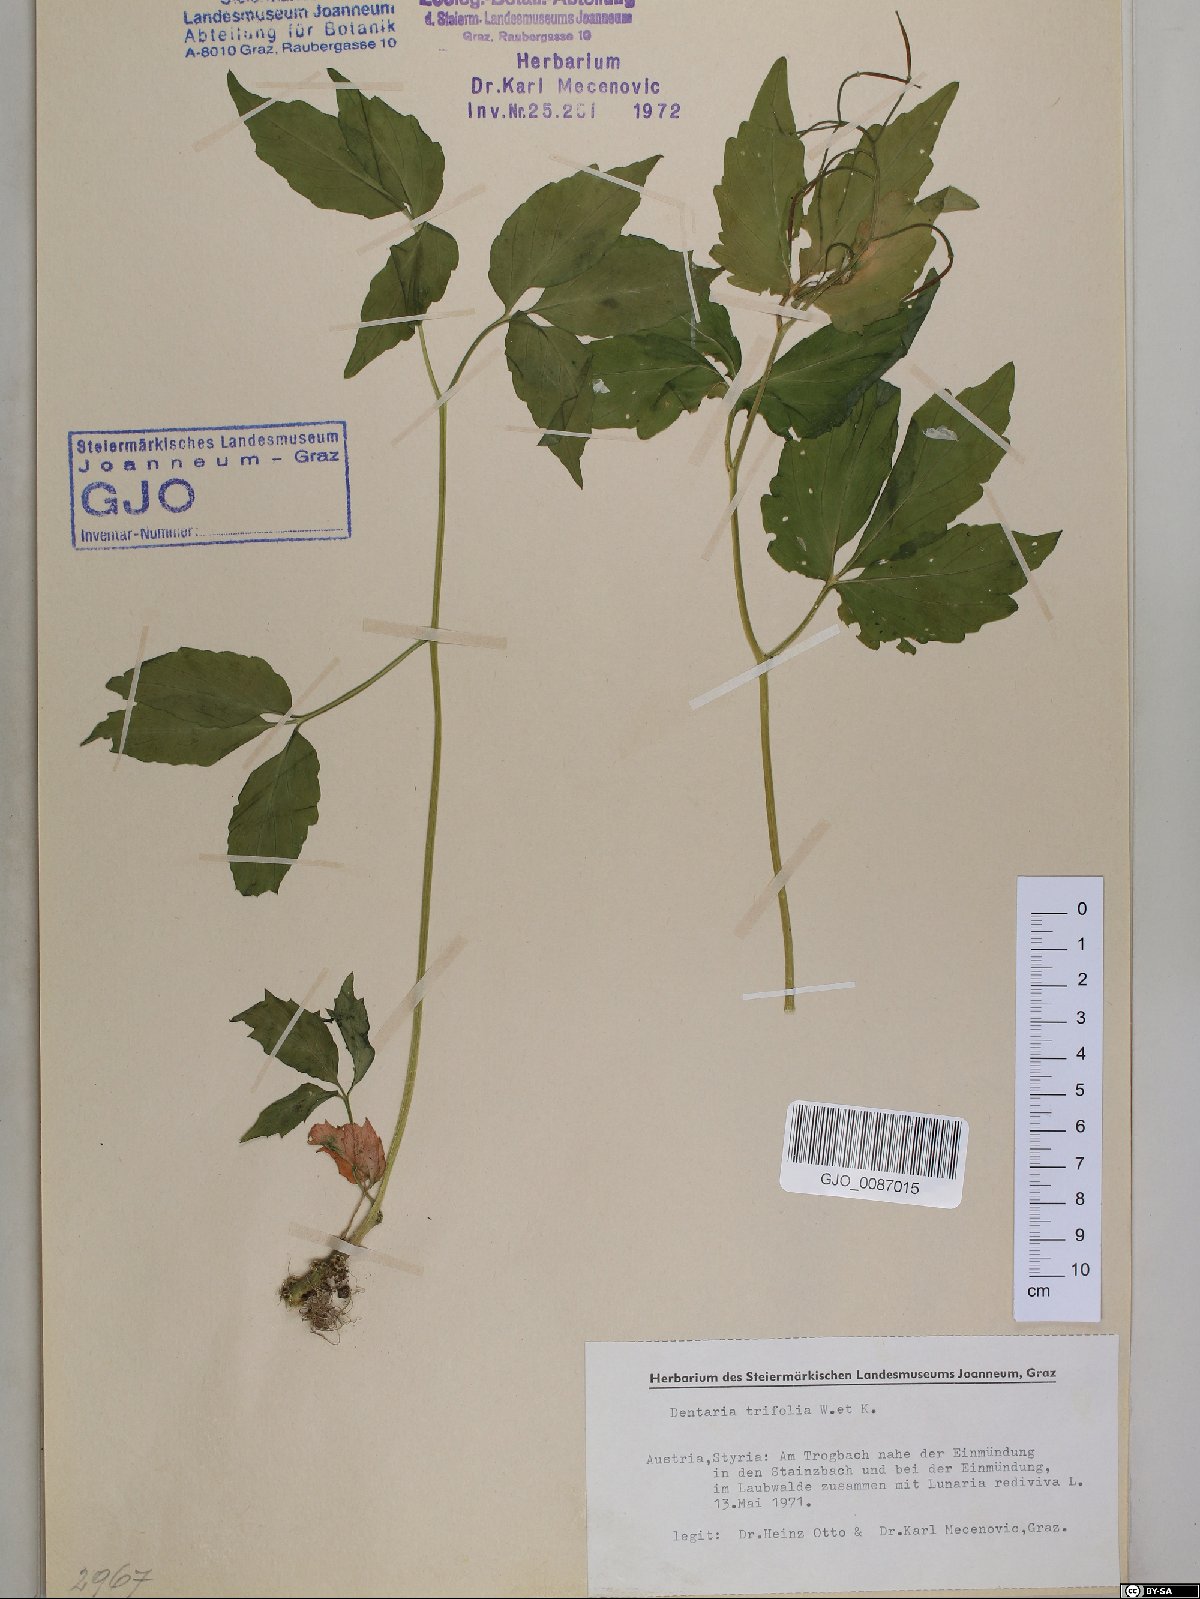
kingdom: Plantae
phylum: Tracheophyta
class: Magnoliopsida
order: Brassicales
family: Brassicaceae
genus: Cardamine
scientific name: Cardamine waldsteinii
